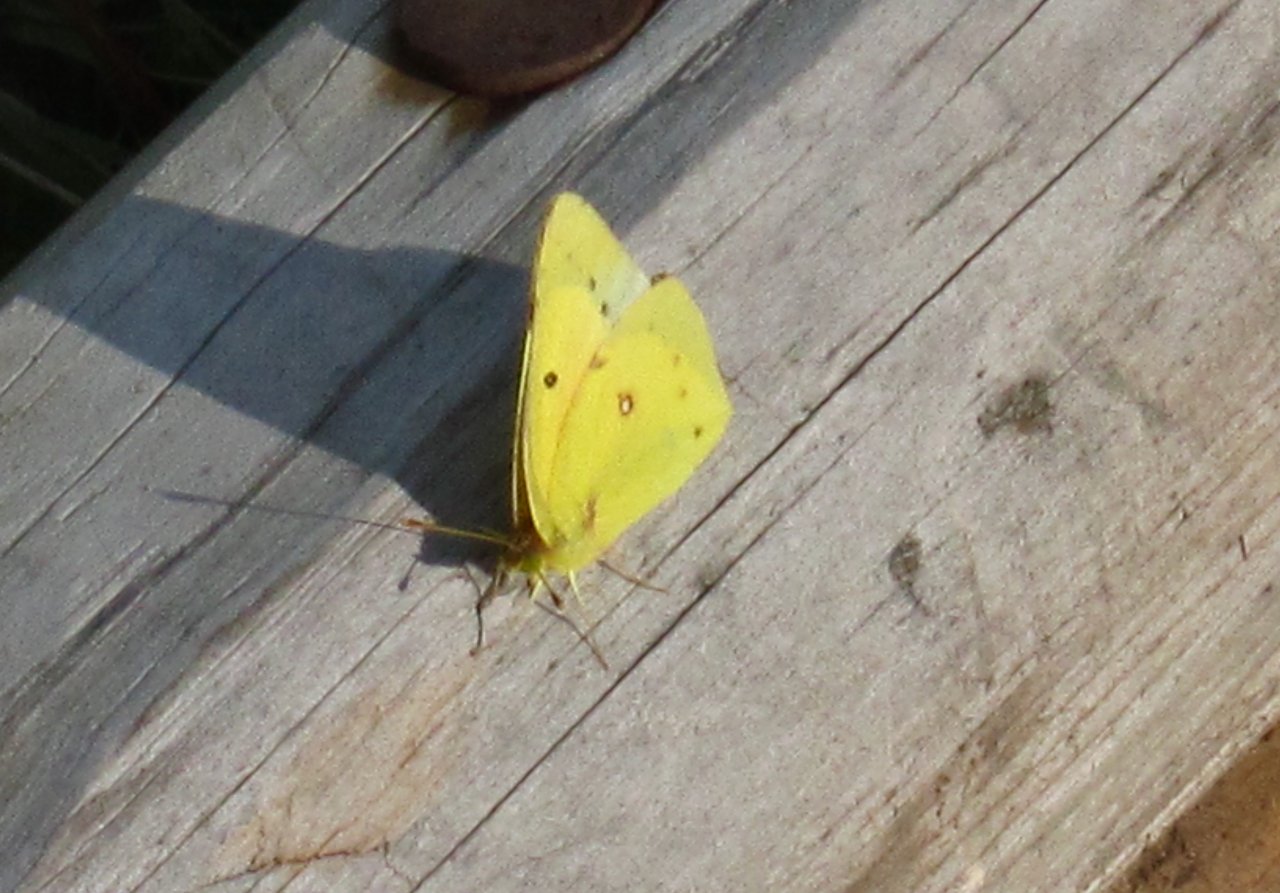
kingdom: Animalia
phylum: Arthropoda
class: Insecta
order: Lepidoptera
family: Pieridae
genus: Colias
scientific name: Colias eurytheme
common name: Orange Sulphur
